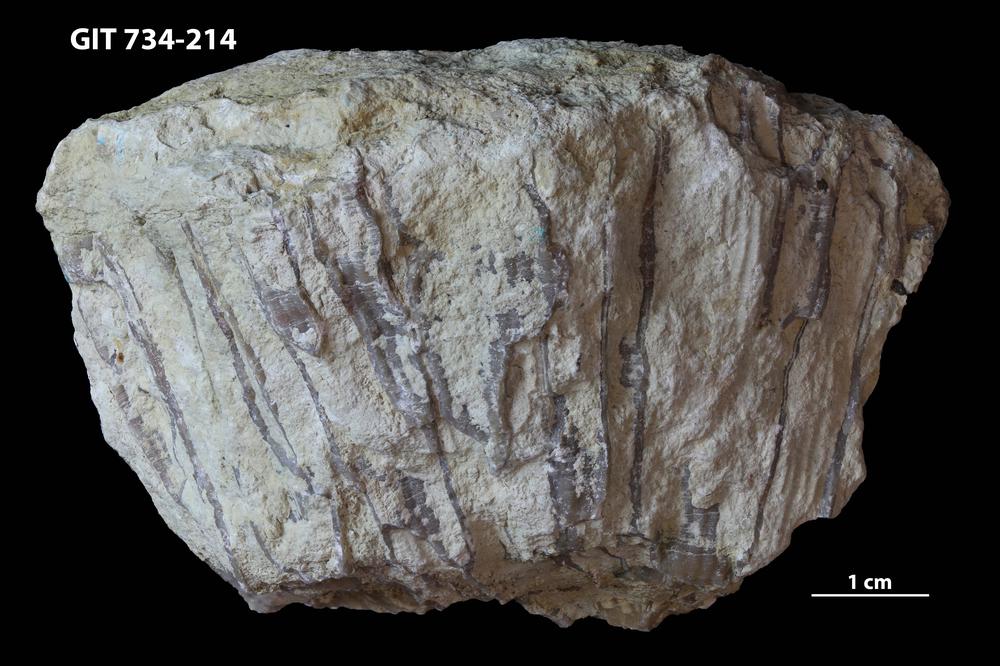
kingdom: Animalia
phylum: Cnidaria
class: Anthozoa
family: Cateniporidae
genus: Catenipora
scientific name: Catenipora
